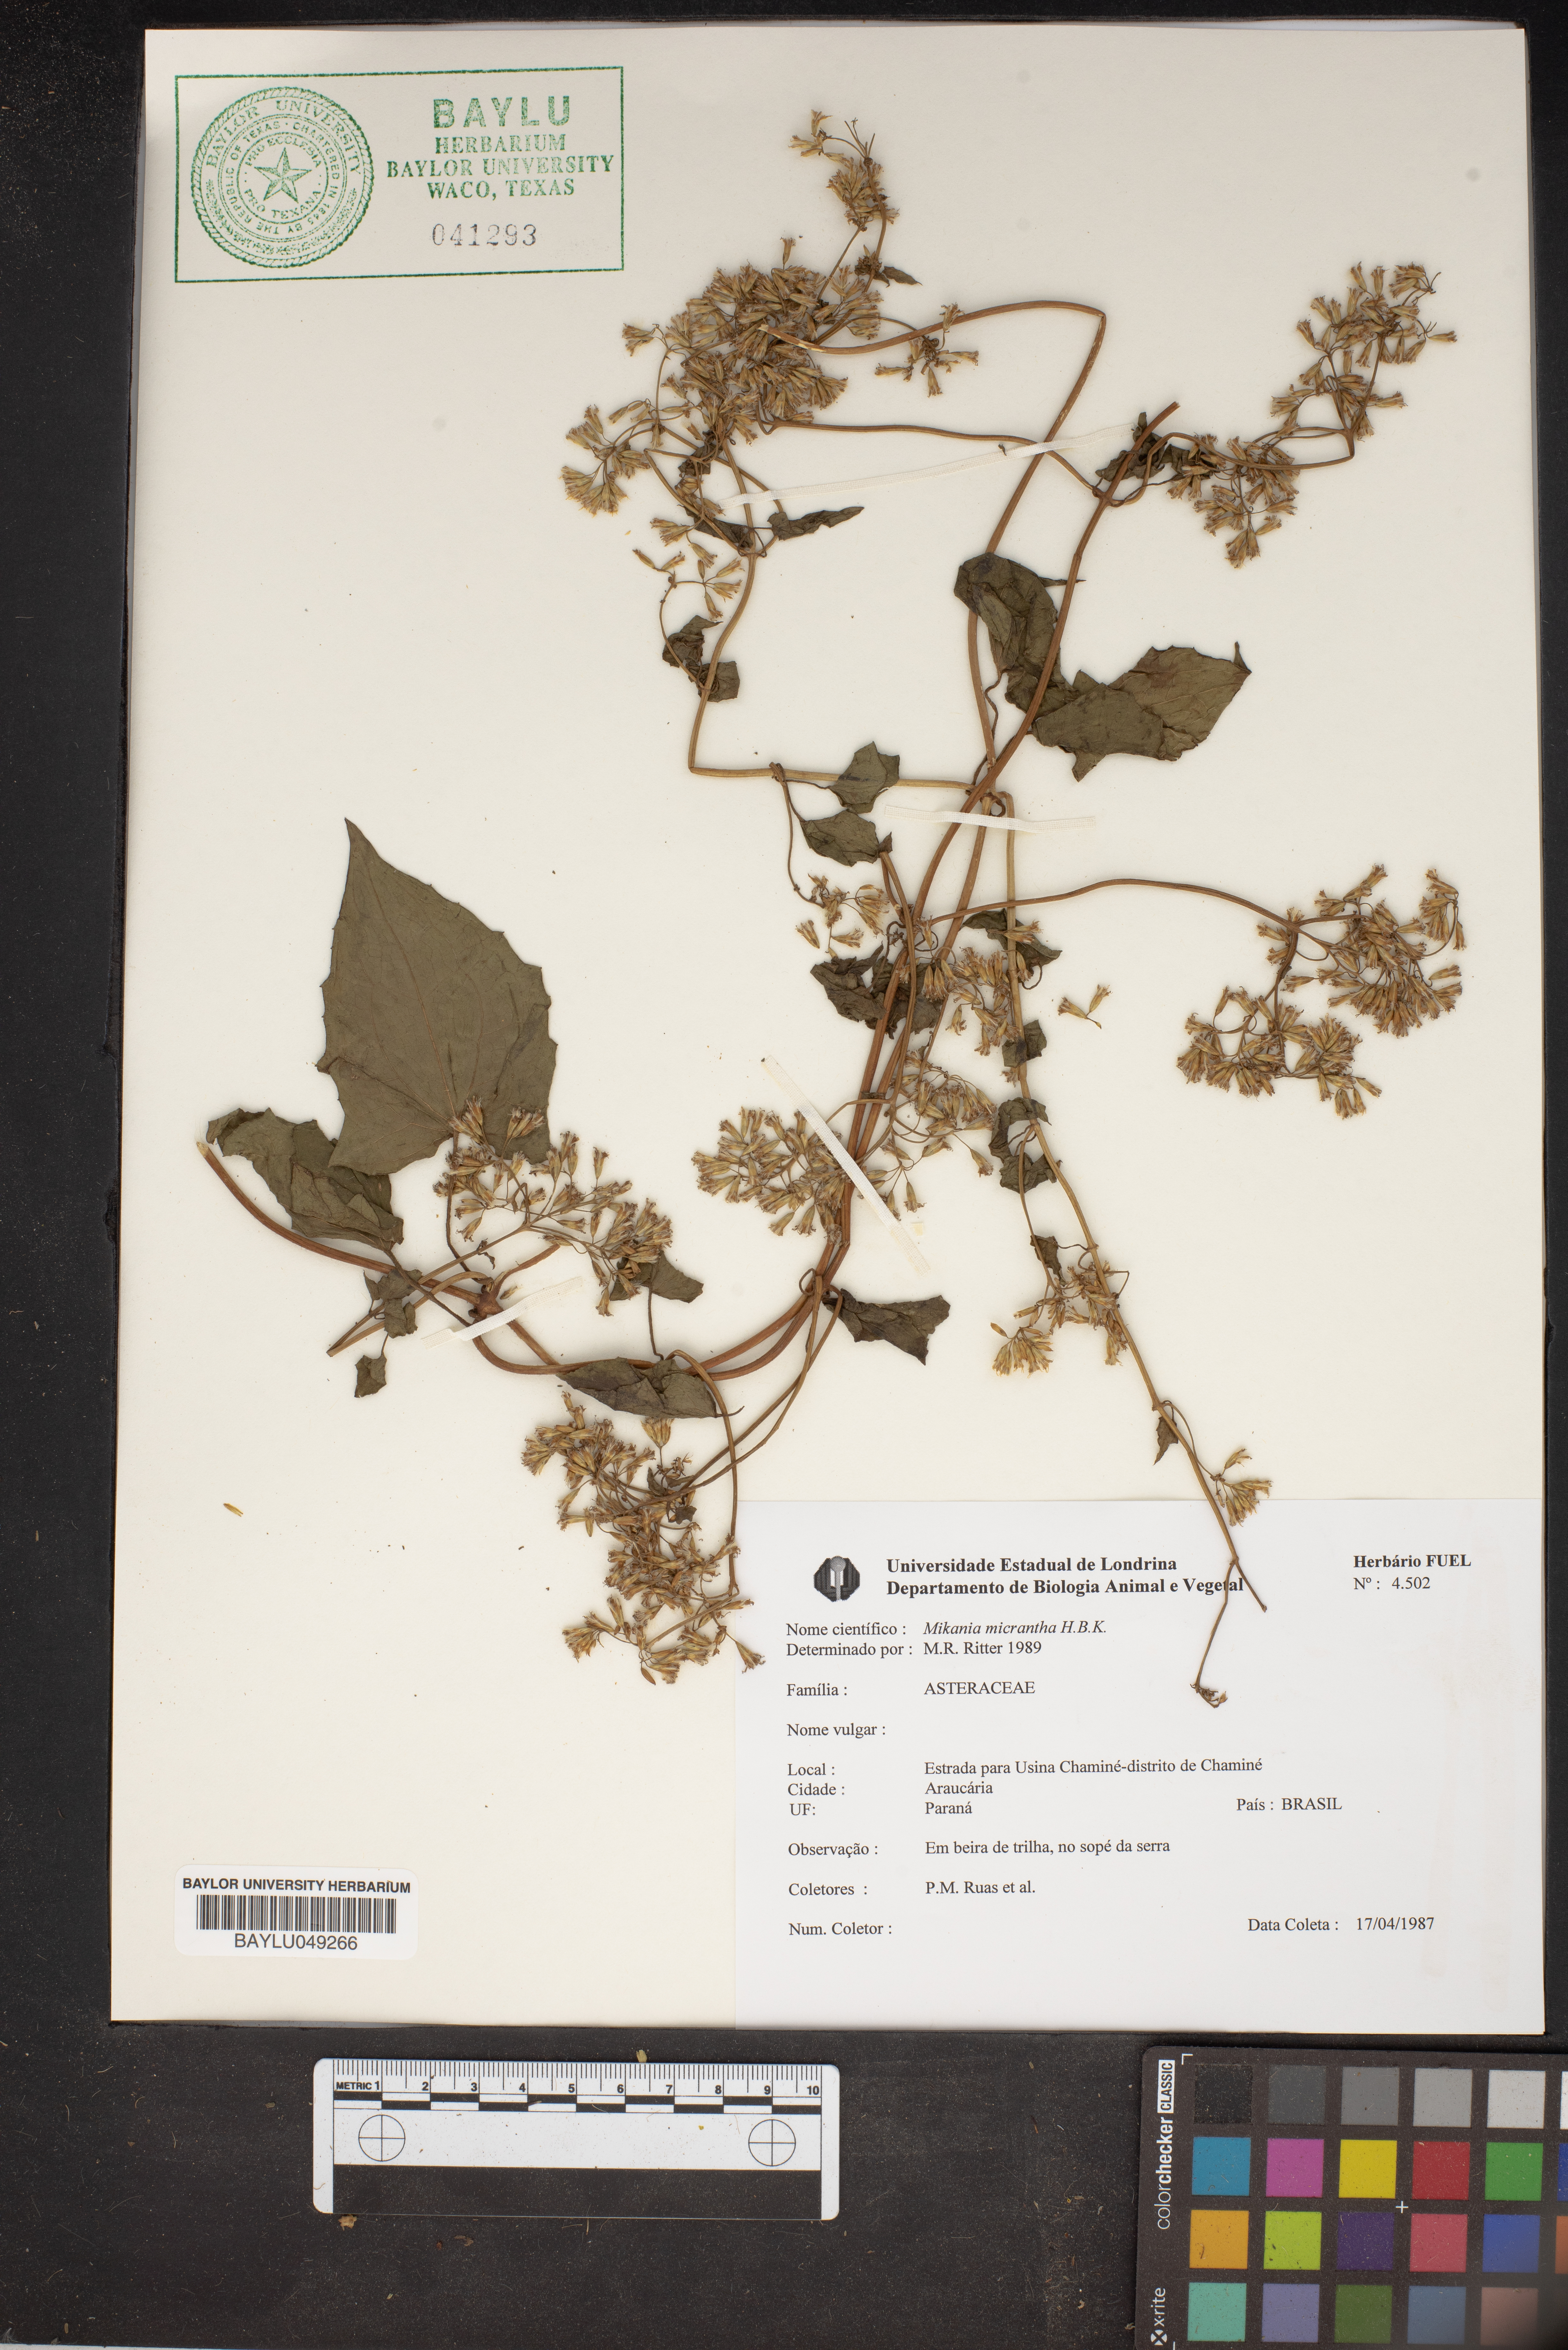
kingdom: Plantae
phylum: Tracheophyta
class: Magnoliopsida
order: Asterales
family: Asteraceae
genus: Mikania
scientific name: Mikania micrantha
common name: Mile-a-minute
